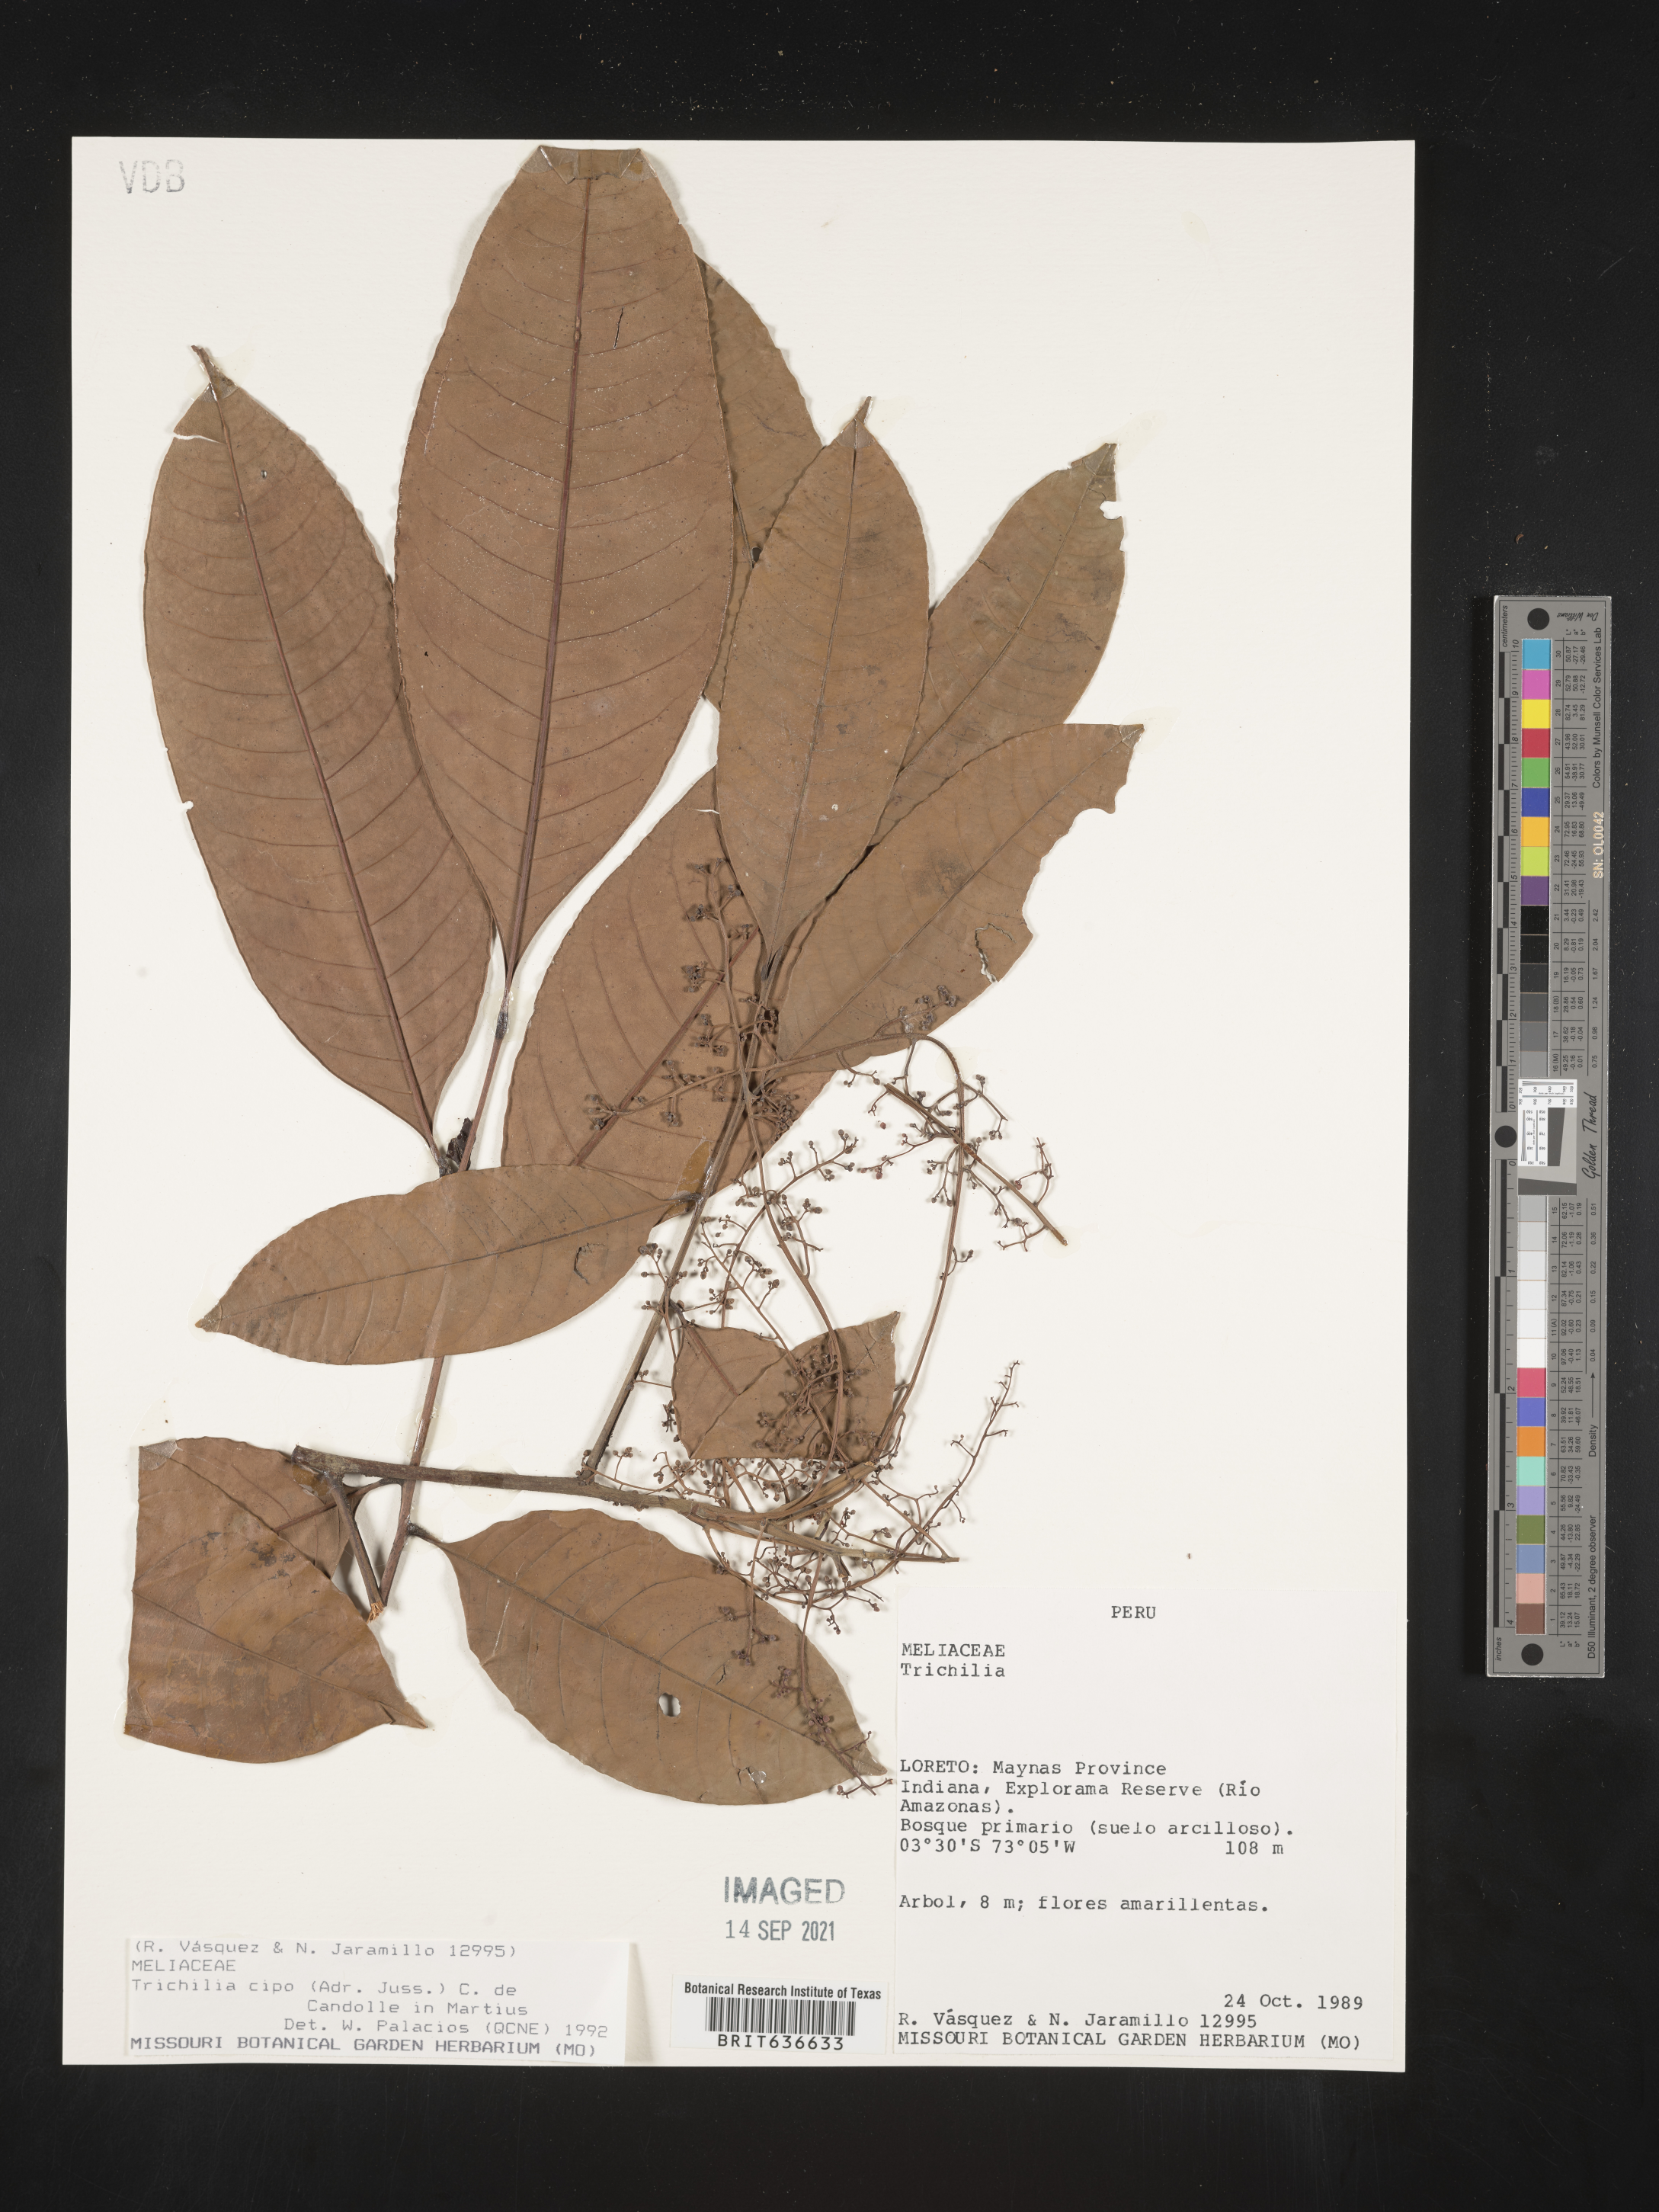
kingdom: Plantae
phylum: Tracheophyta
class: Magnoliopsida
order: Sapindales
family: Meliaceae
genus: Trichilia
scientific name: Trichilia
